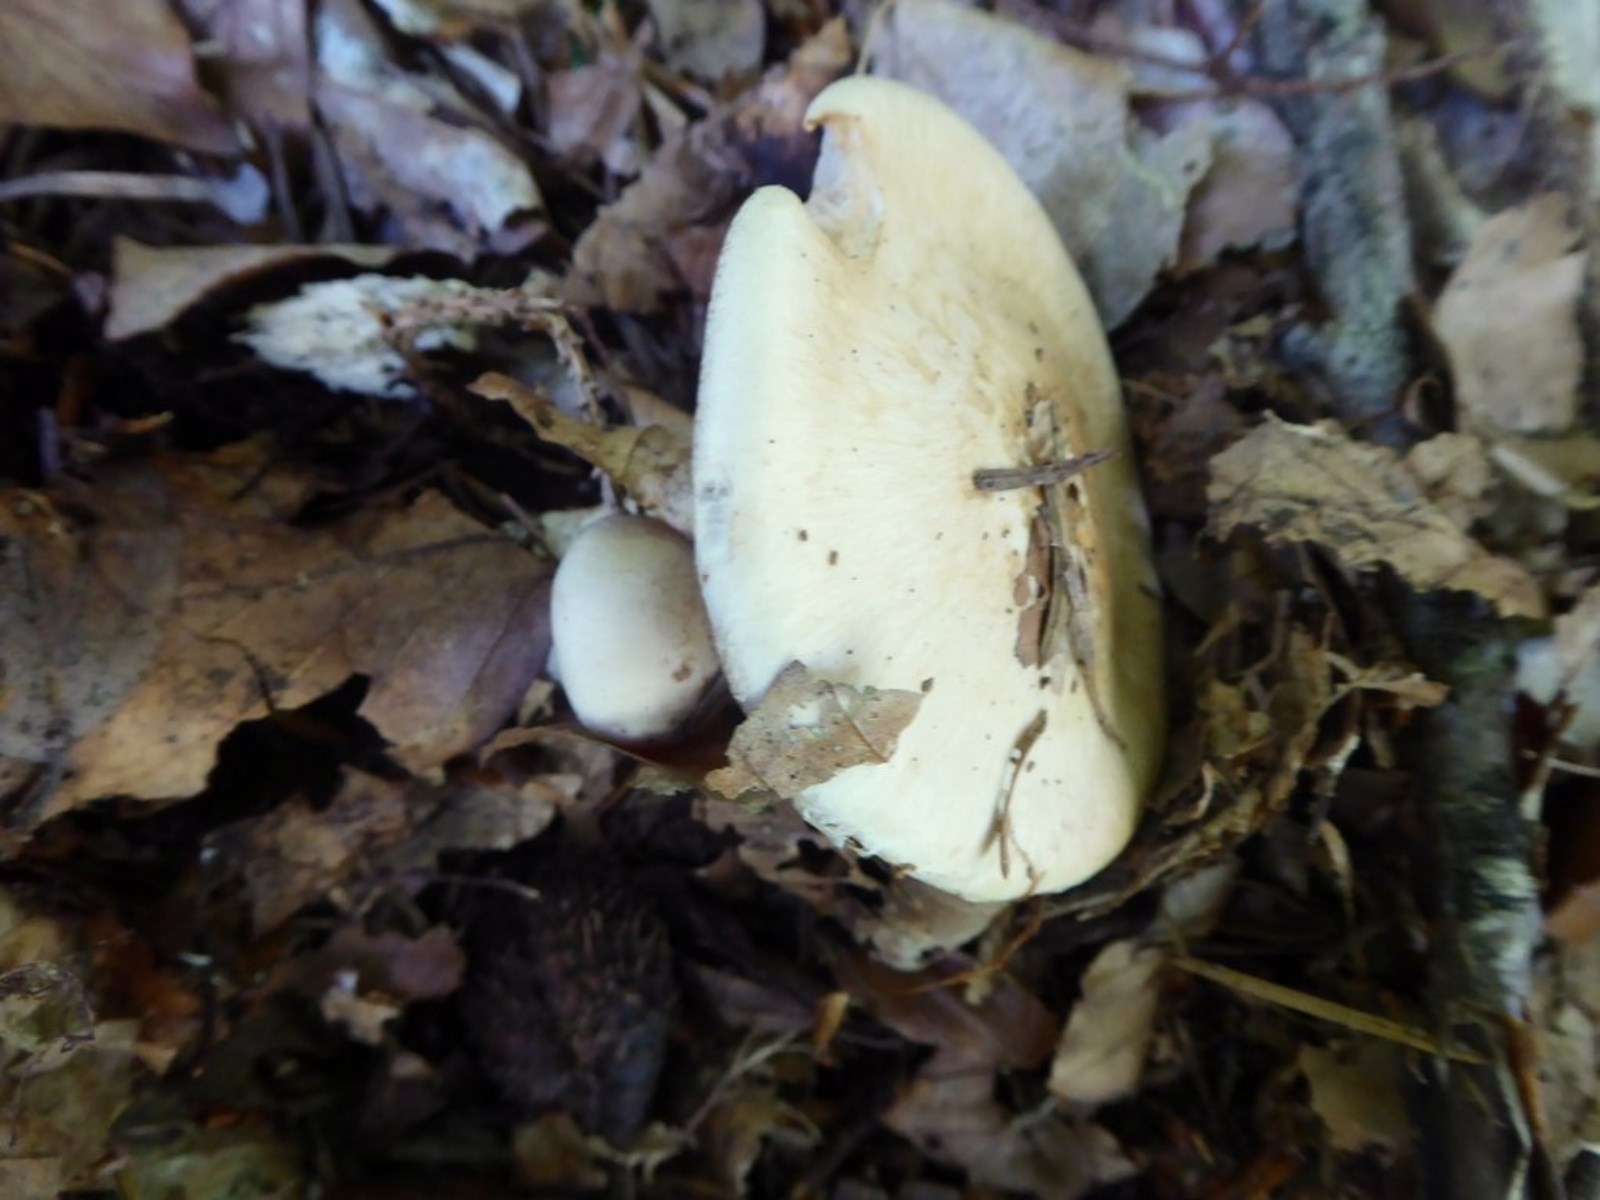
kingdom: Fungi
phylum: Basidiomycota
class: Agaricomycetes
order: Agaricales
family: Hymenogastraceae
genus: Hebeloma
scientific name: Hebeloma radicosum
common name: pælerods-tåreblad
